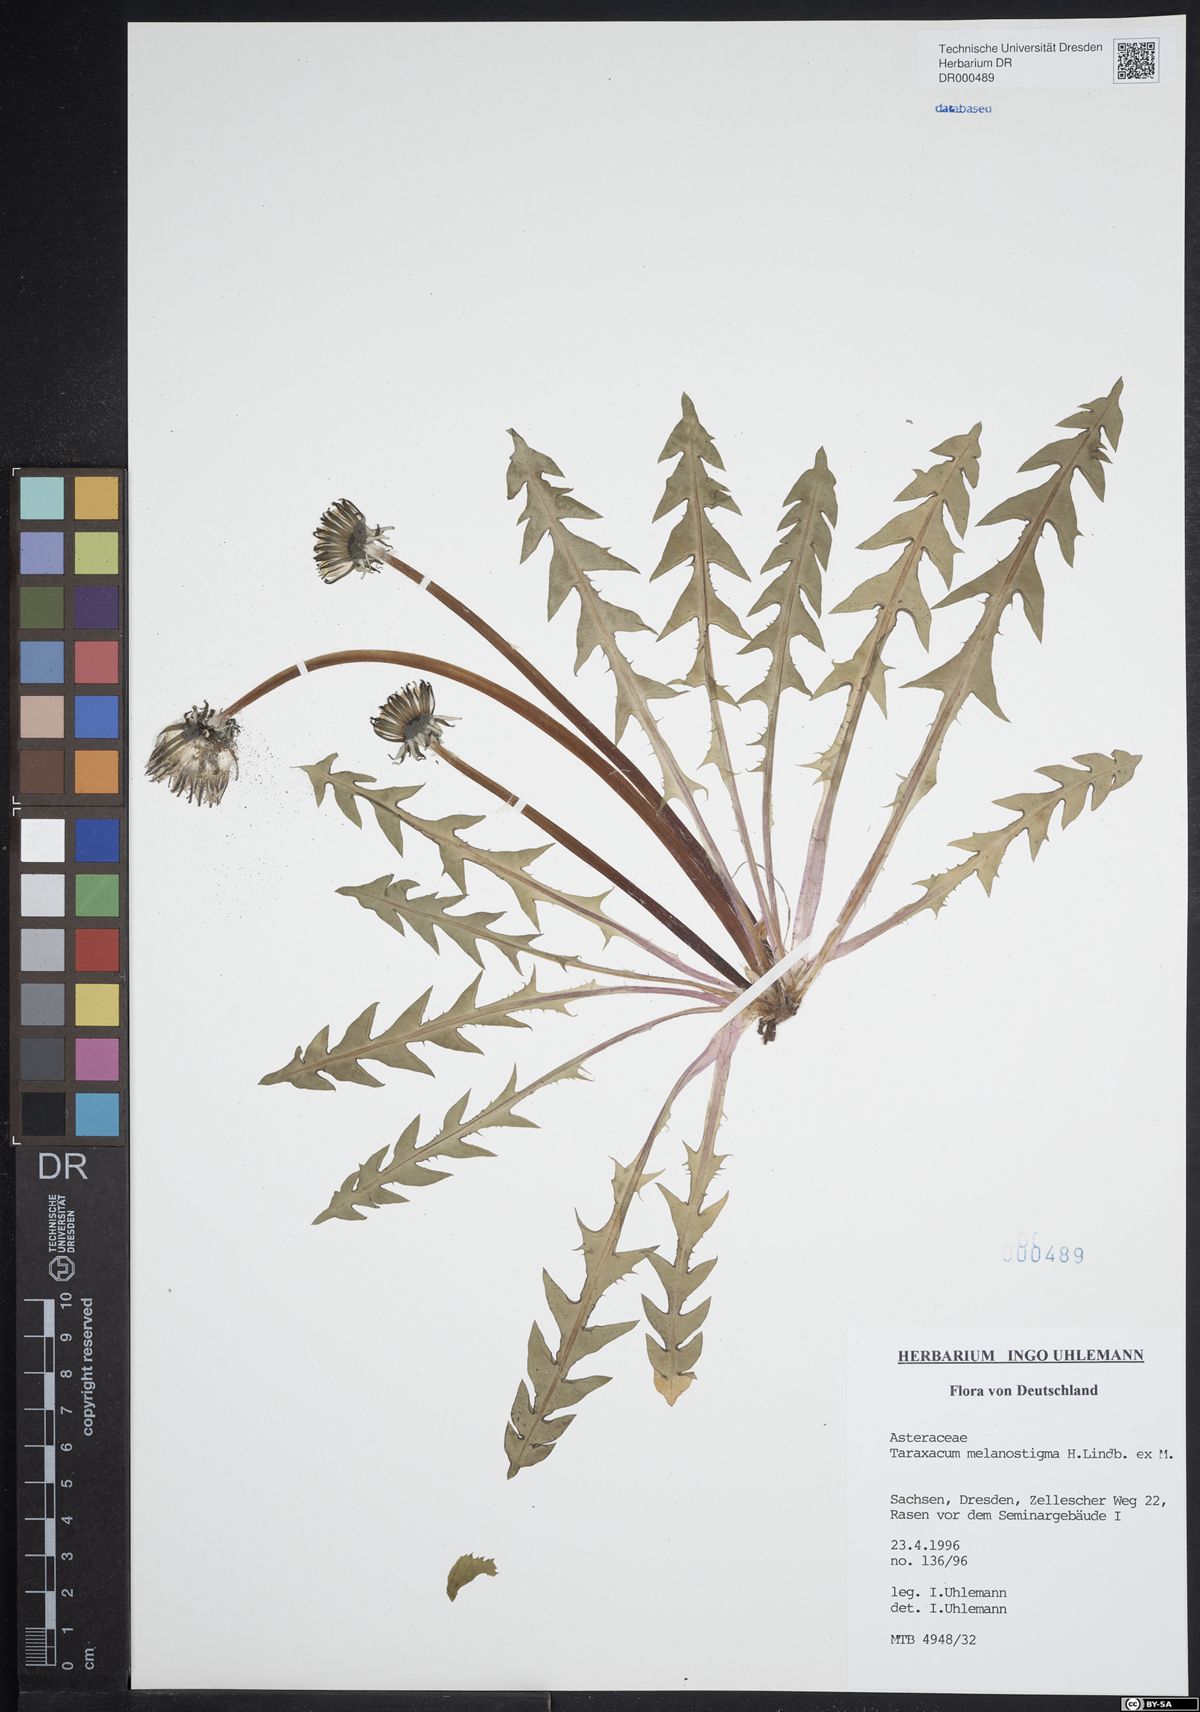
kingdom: Plantae
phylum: Tracheophyta
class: Magnoliopsida
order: Asterales
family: Asteraceae
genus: Taraxacum
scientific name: Taraxacum melanostigma
